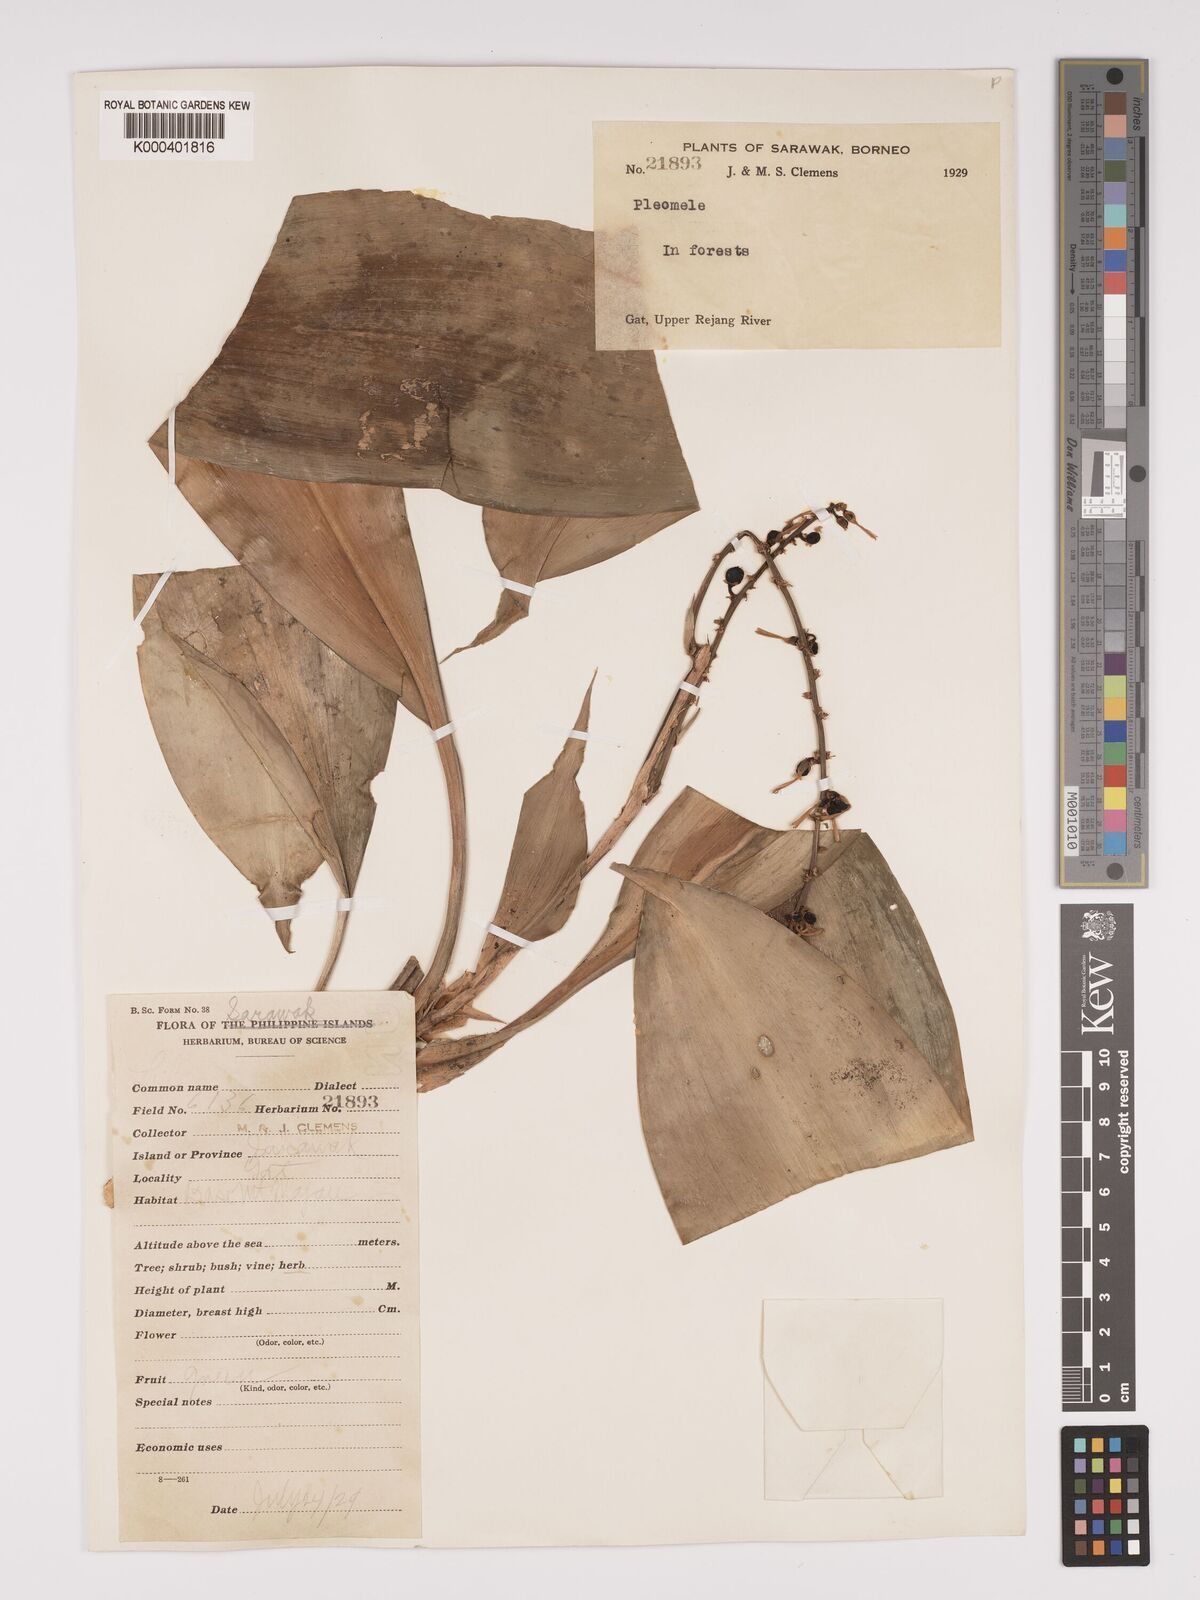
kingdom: Plantae
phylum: Tracheophyta
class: Liliopsida
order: Asparagales
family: Asparagaceae
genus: Dracaena
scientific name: Dracaena
